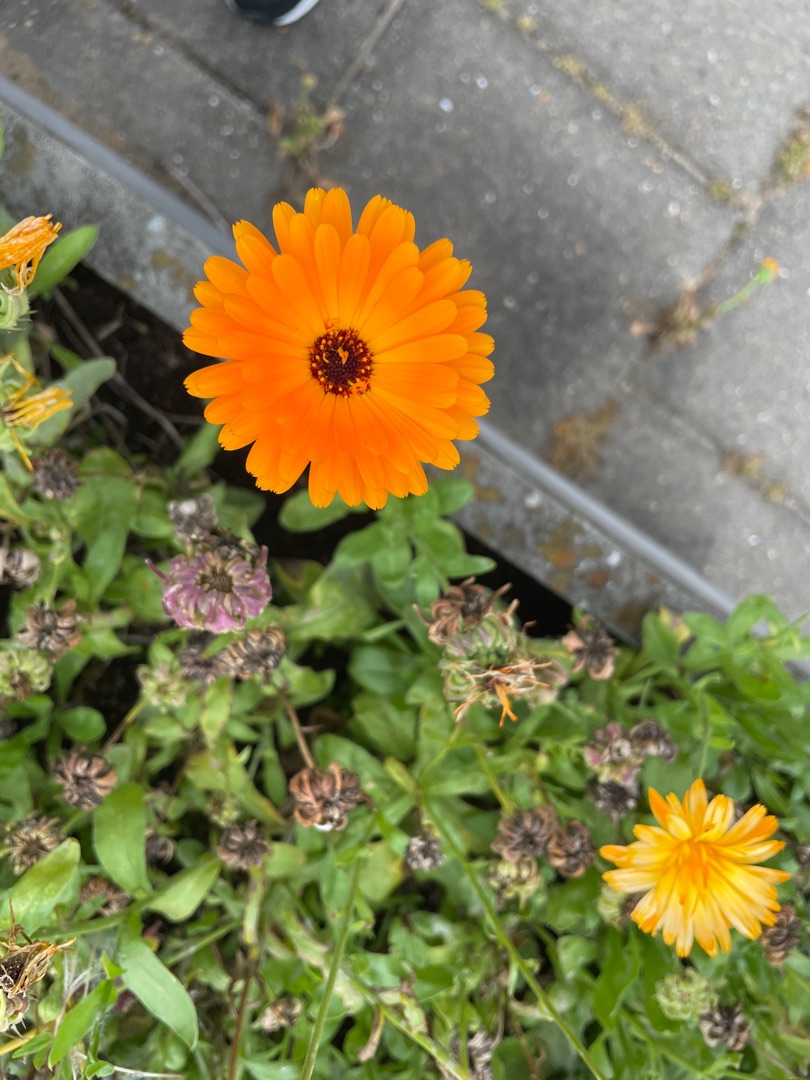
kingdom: Plantae
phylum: Tracheophyta
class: Magnoliopsida
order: Asterales
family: Asteraceae
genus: Calendula
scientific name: Calendula officinalis
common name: Have-morgenfrue
